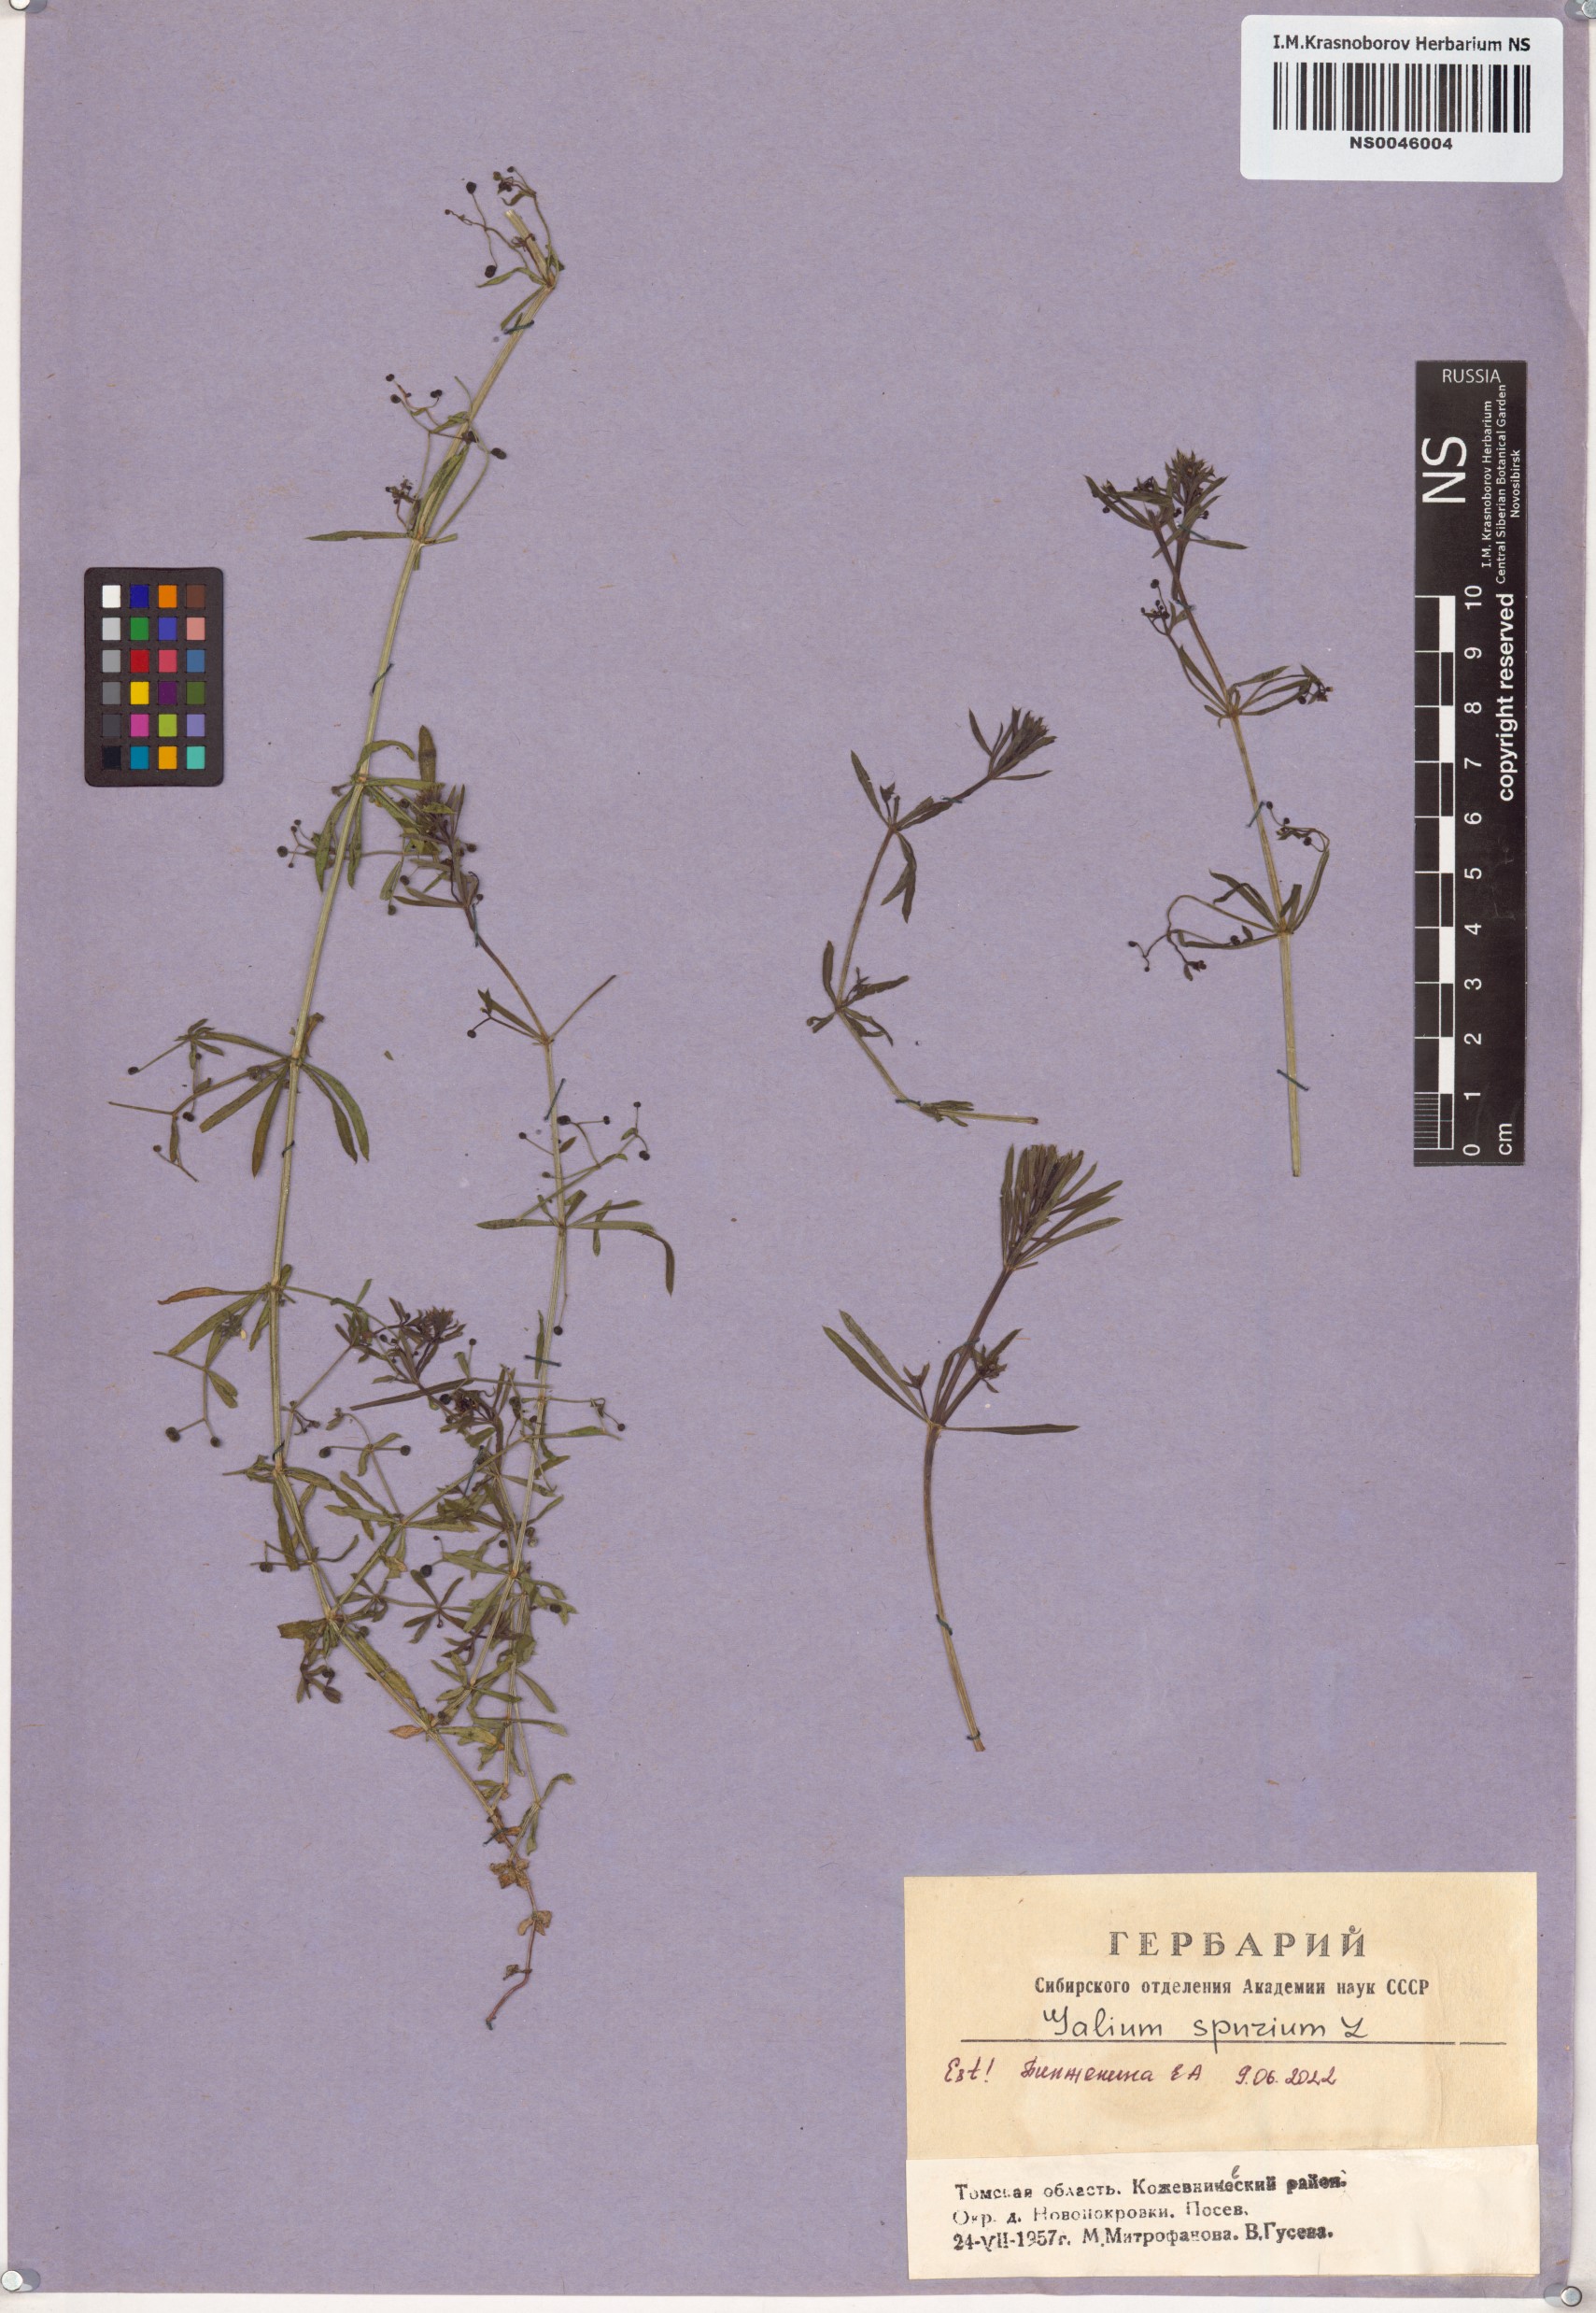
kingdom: Plantae
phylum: Tracheophyta
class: Magnoliopsida
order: Gentianales
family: Rubiaceae
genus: Galium
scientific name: Galium spurium
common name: False cleavers
